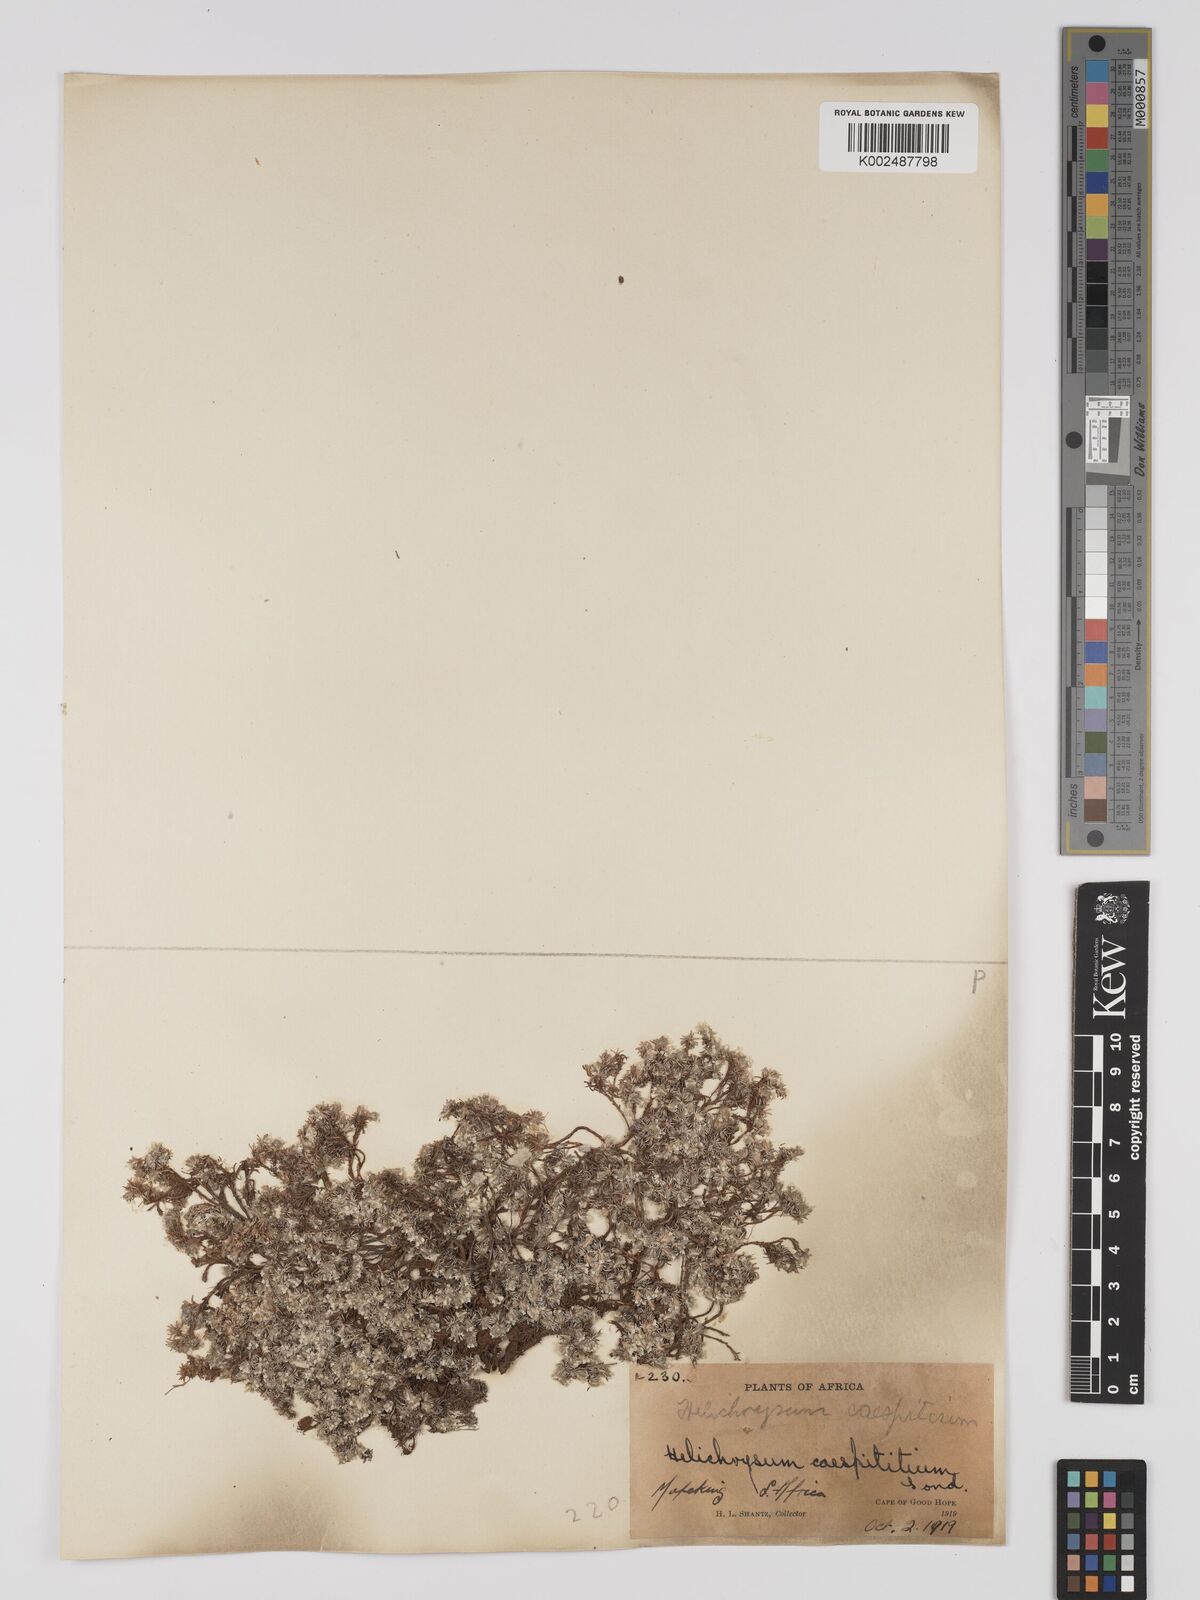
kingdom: Plantae
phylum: Tracheophyta
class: Magnoliopsida
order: Asterales
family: Asteraceae
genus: Helichrysum
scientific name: Helichrysum caespititium
